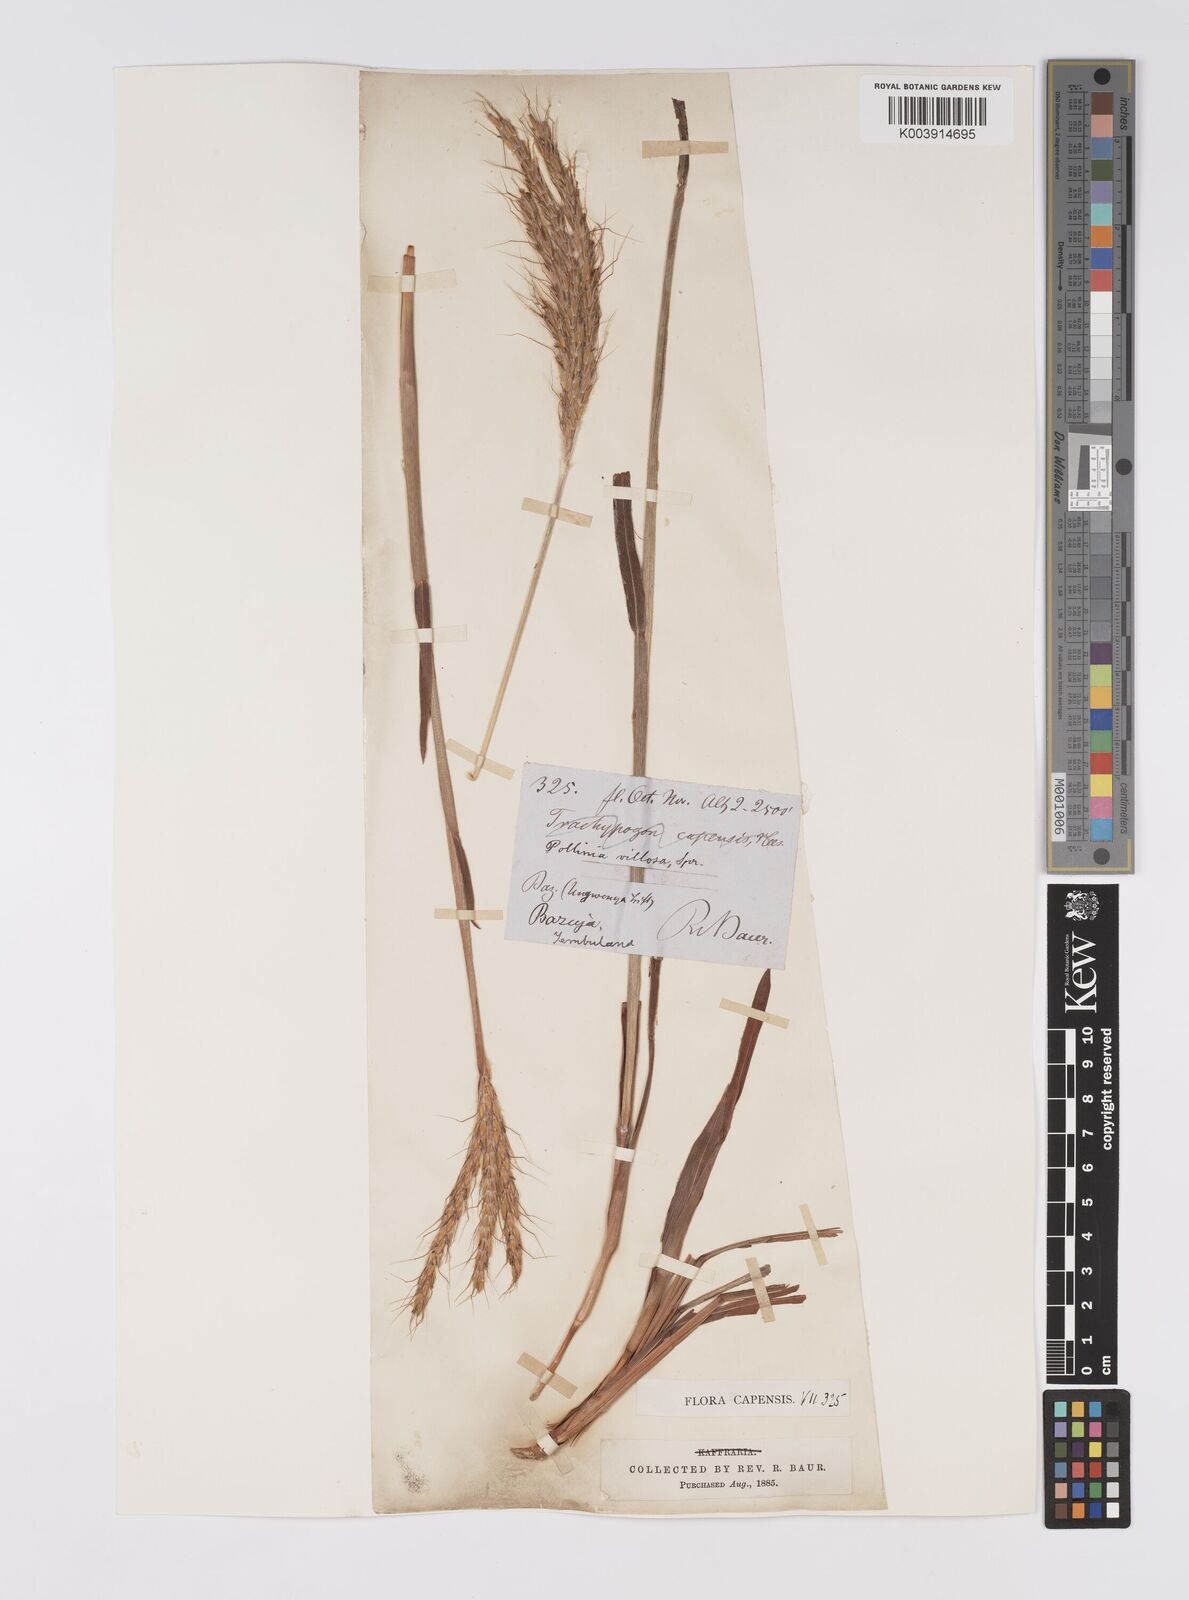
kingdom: Plantae
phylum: Tracheophyta
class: Liliopsida
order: Poales
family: Poaceae
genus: Eulalia
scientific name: Eulalia villosa
